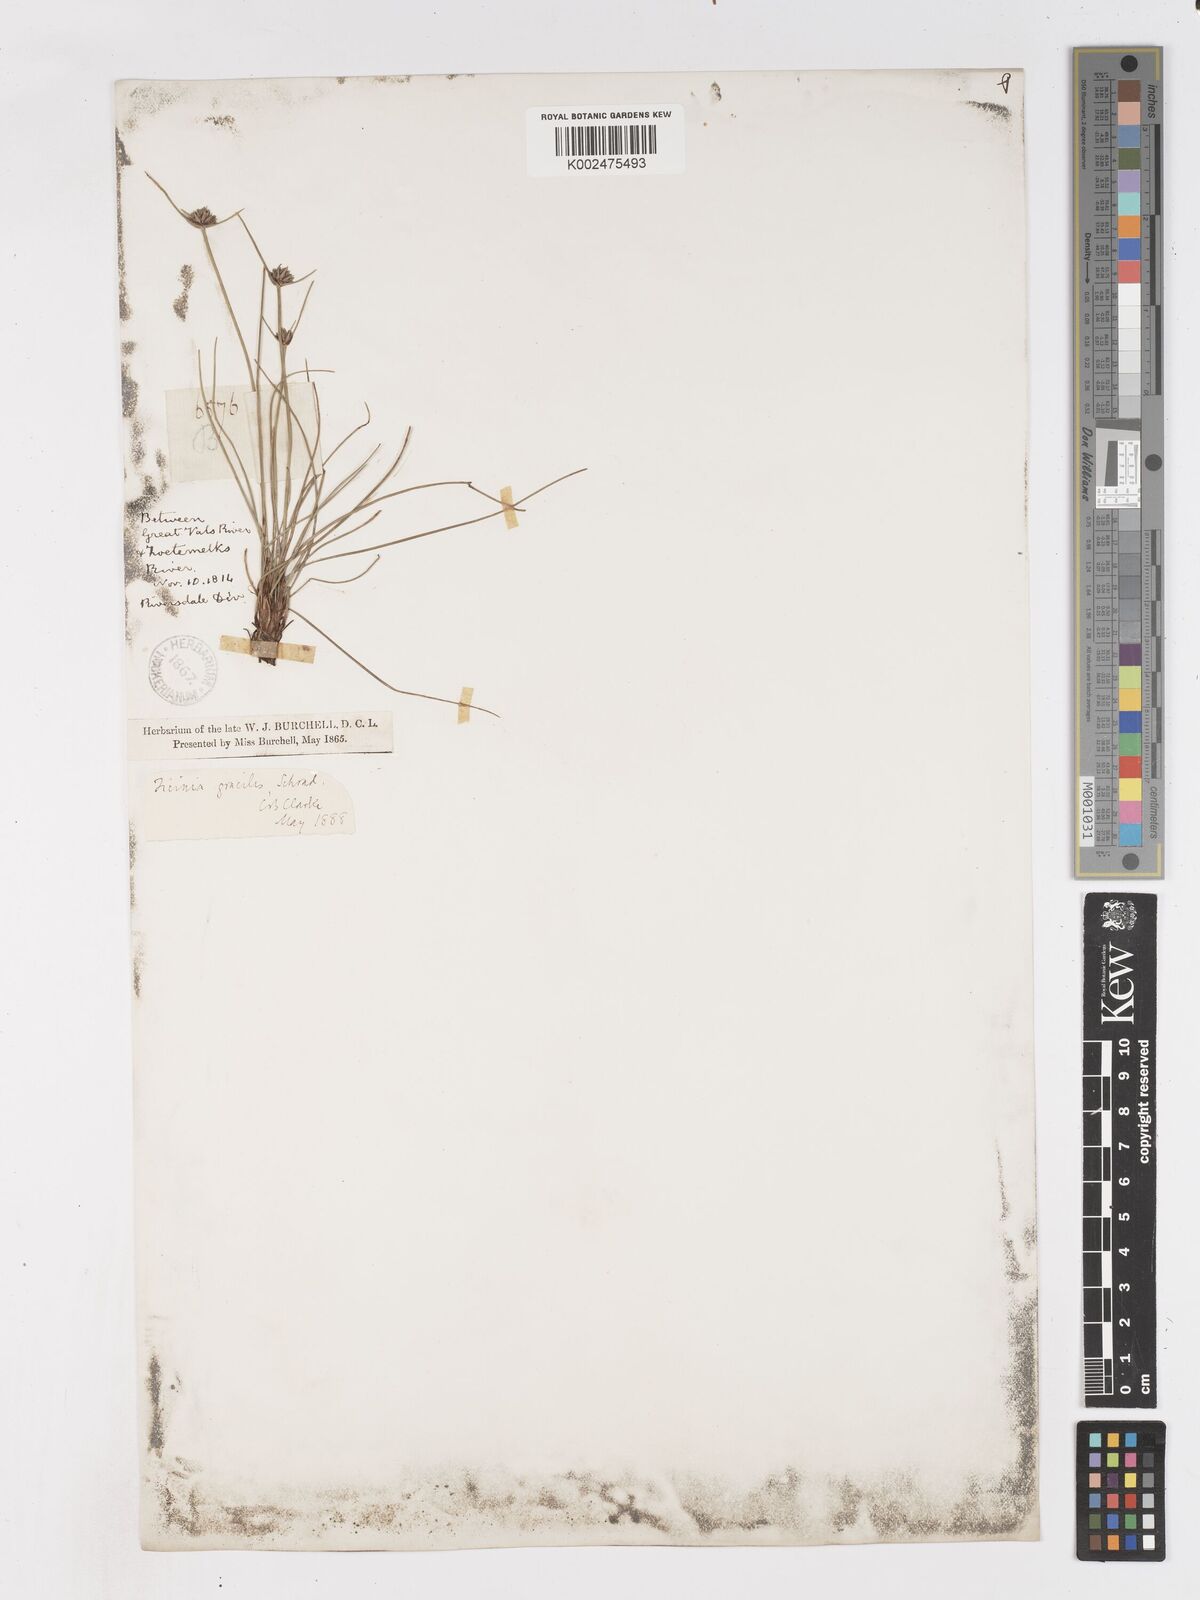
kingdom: Plantae
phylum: Tracheophyta
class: Liliopsida
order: Poales
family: Cyperaceae
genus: Ficinia
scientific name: Ficinia gracilis
